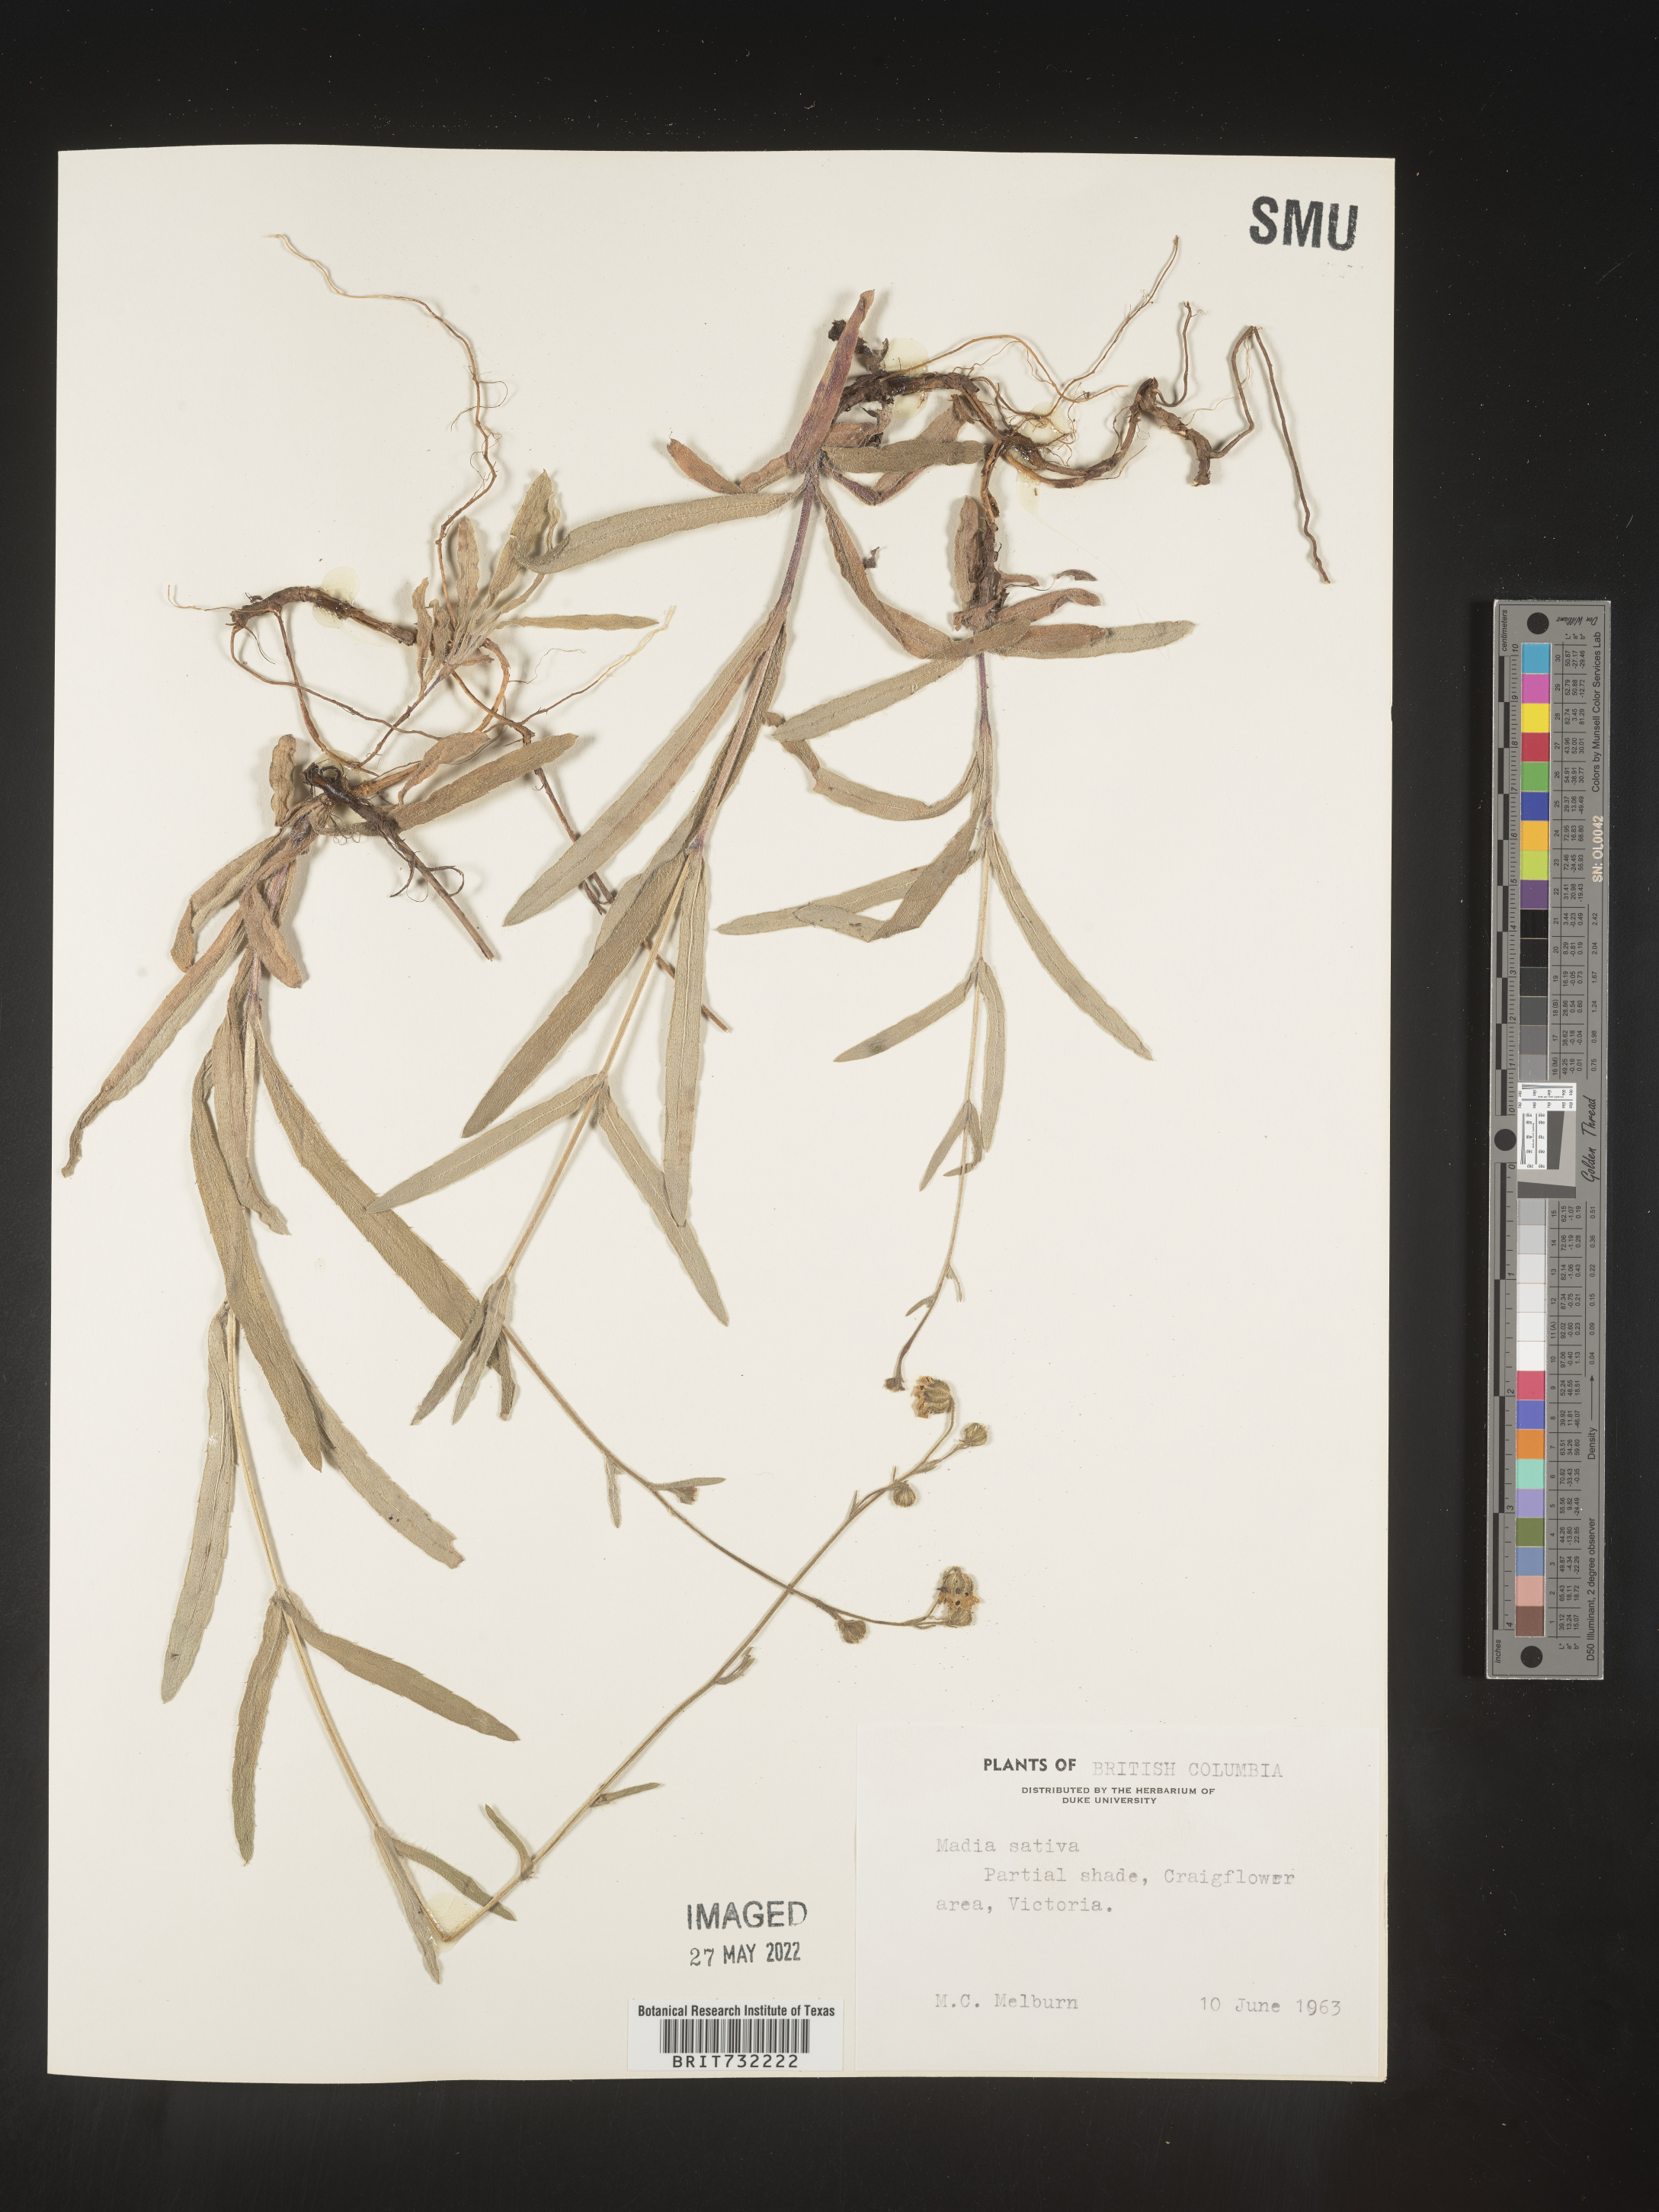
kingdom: Plantae
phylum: Tracheophyta
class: Magnoliopsida
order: Asterales
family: Asteraceae
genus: Madia
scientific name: Madia
